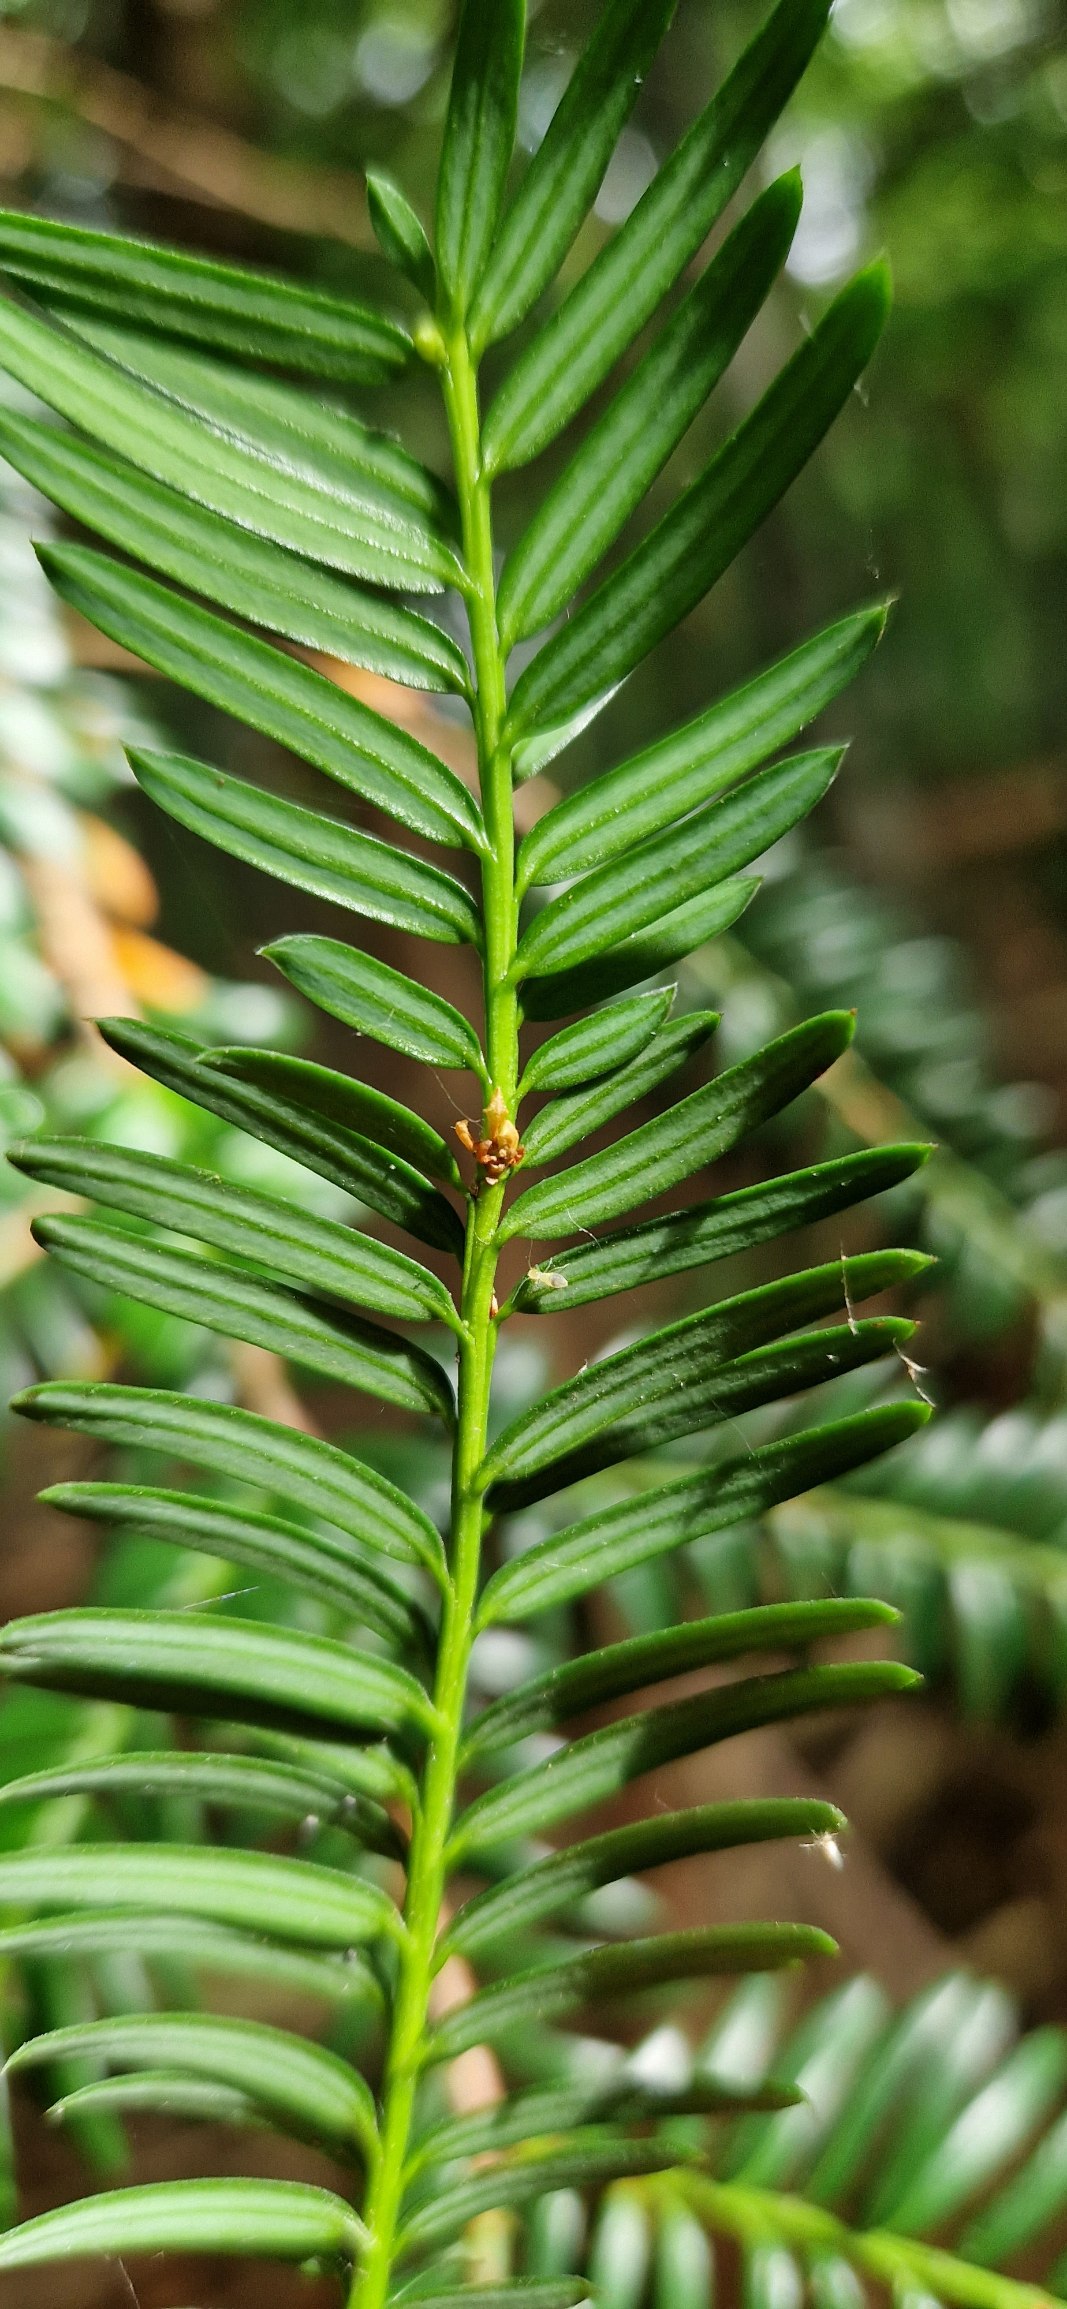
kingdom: Plantae
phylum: Tracheophyta
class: Pinopsida
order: Pinales
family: Taxaceae
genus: Taxus
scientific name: Taxus baccata
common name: Almindelig taks
